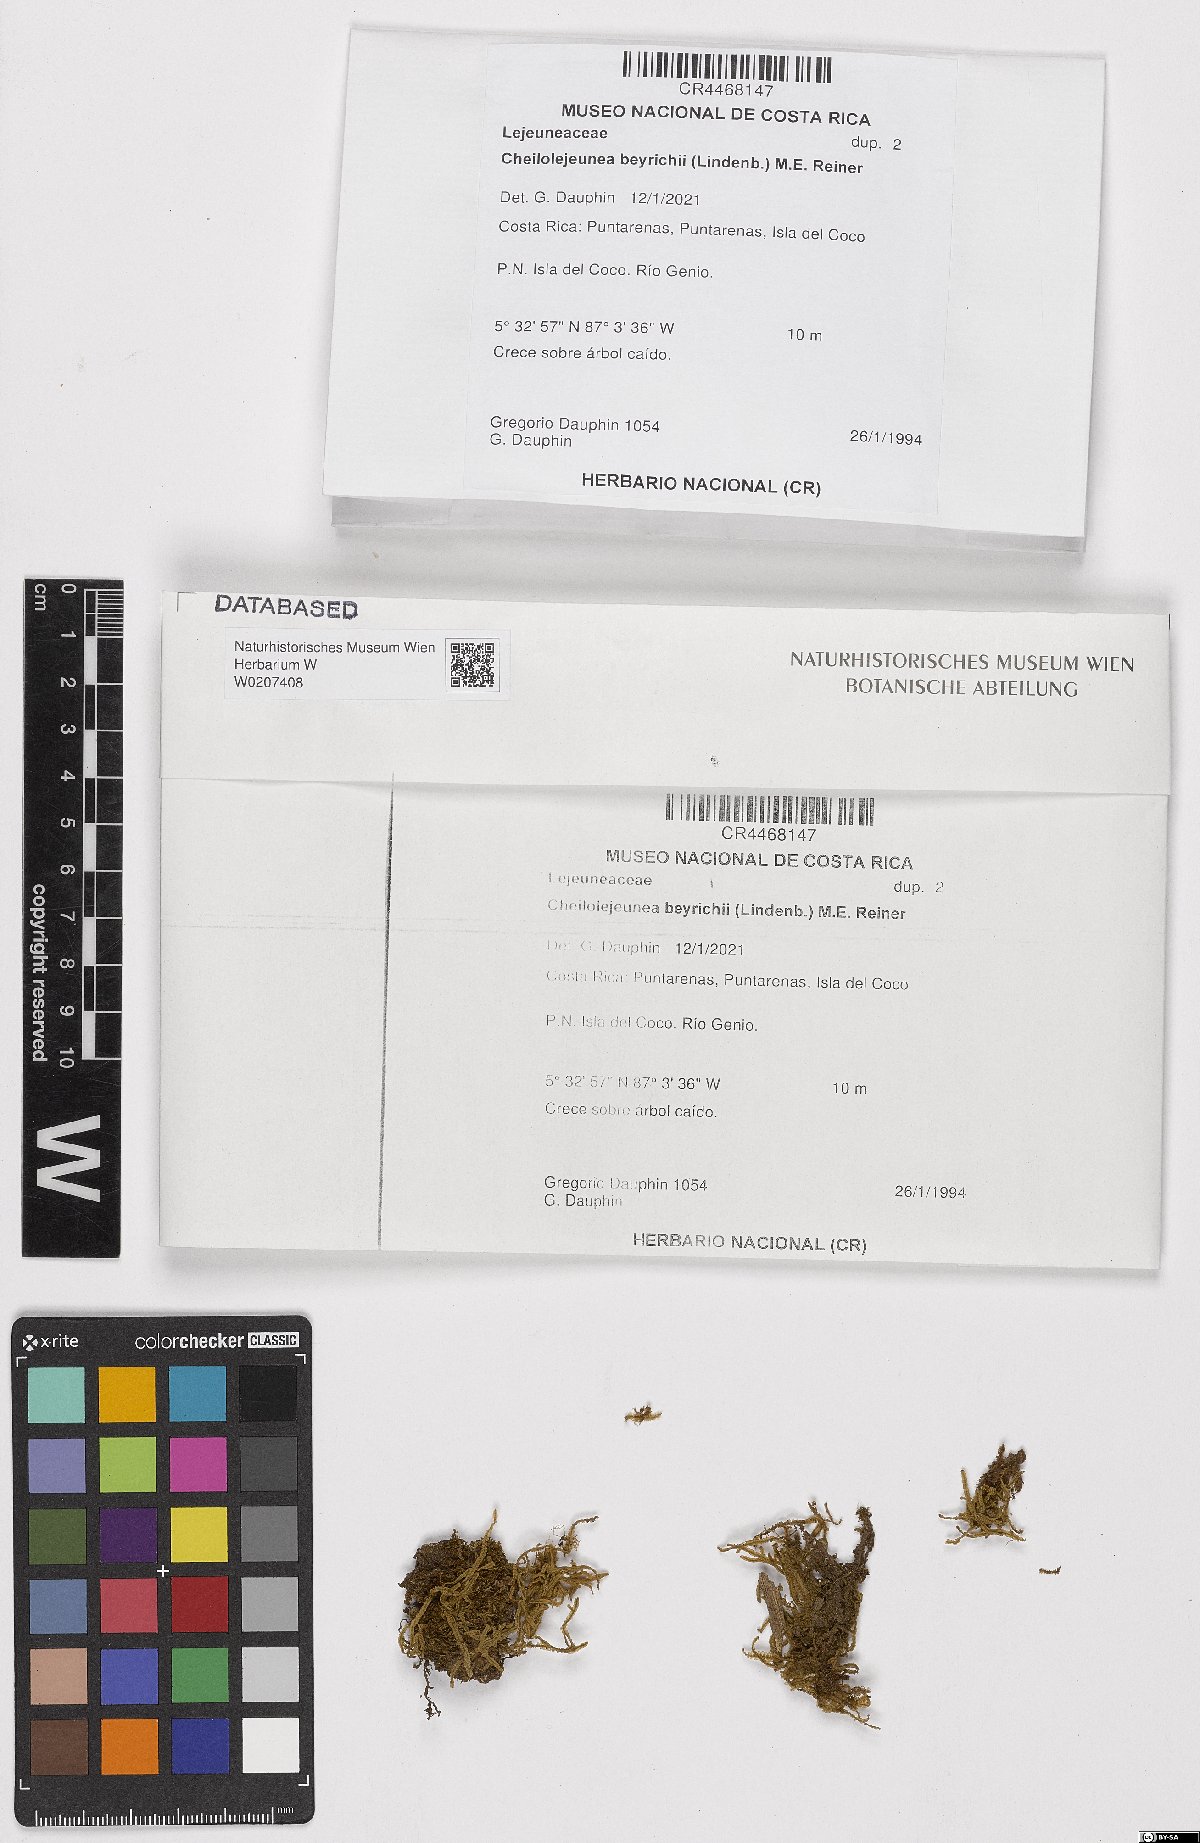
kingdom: Plantae
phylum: Marchantiophyta
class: Jungermanniopsida
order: Porellales
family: Lejeuneaceae
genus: Cheilolejeunea
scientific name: Cheilolejeunea beyrichii
